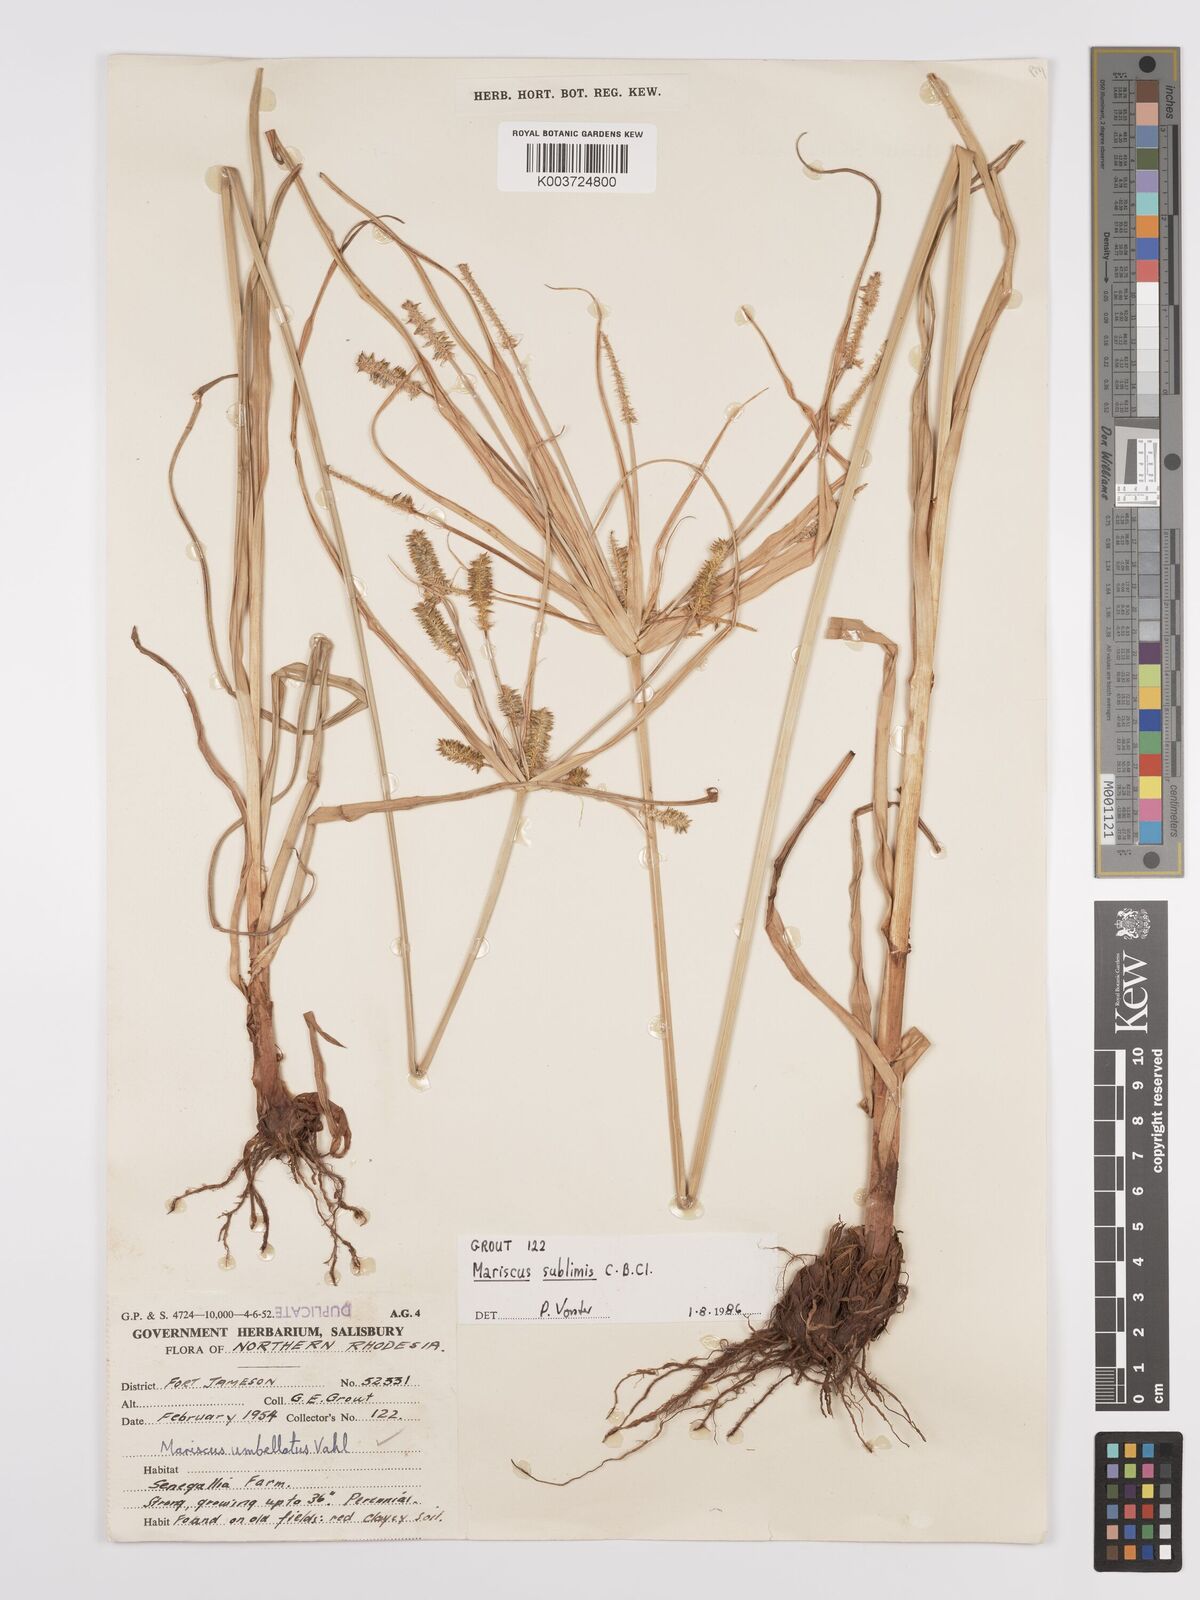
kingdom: Plantae
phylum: Tracheophyta
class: Liliopsida
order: Poales
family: Cyperaceae
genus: Cyperus
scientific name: Cyperus cyperoides
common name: Pacific island flat sedge
